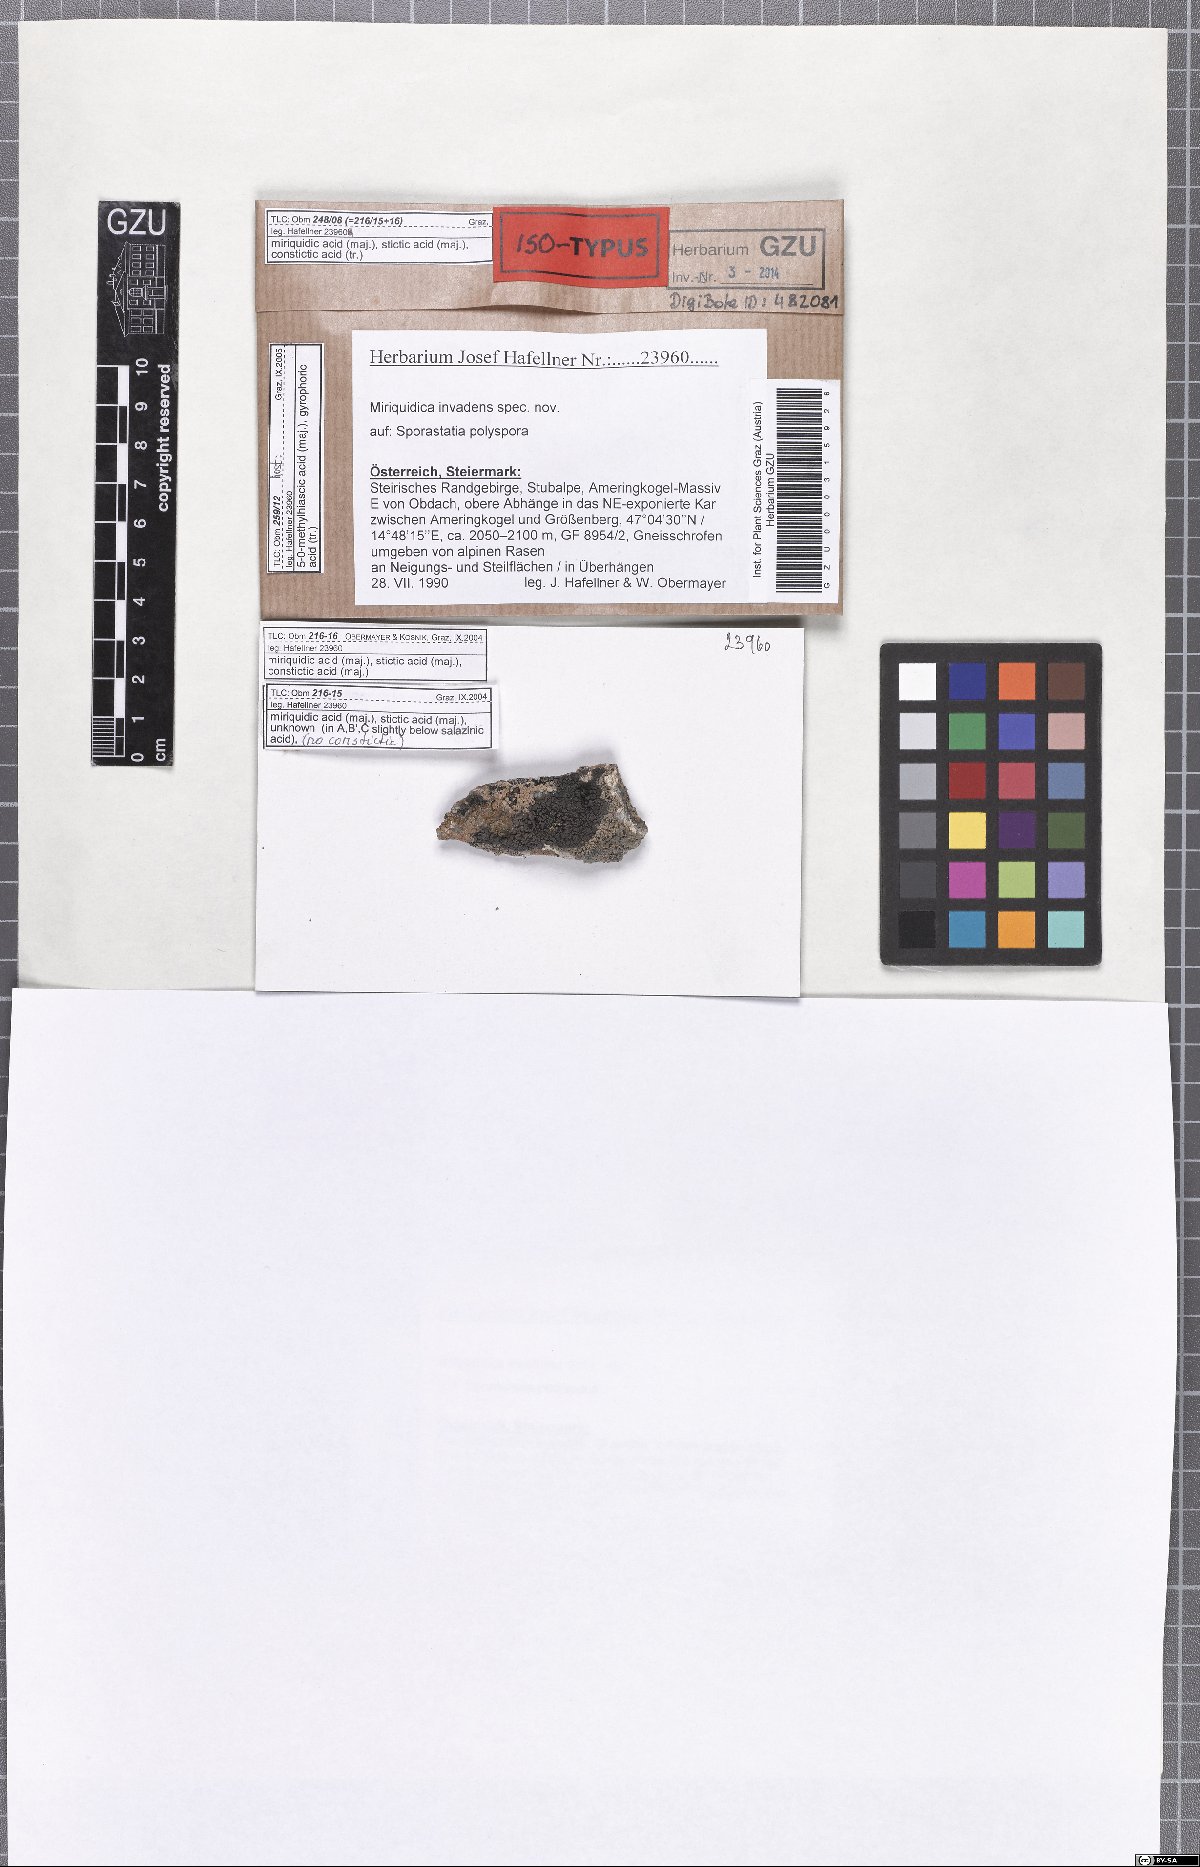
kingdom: Fungi
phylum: Ascomycota
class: Lecanoromycetes
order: Lecanorales
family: Lecanoraceae
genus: Miriquidica
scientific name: Miriquidica invadens
